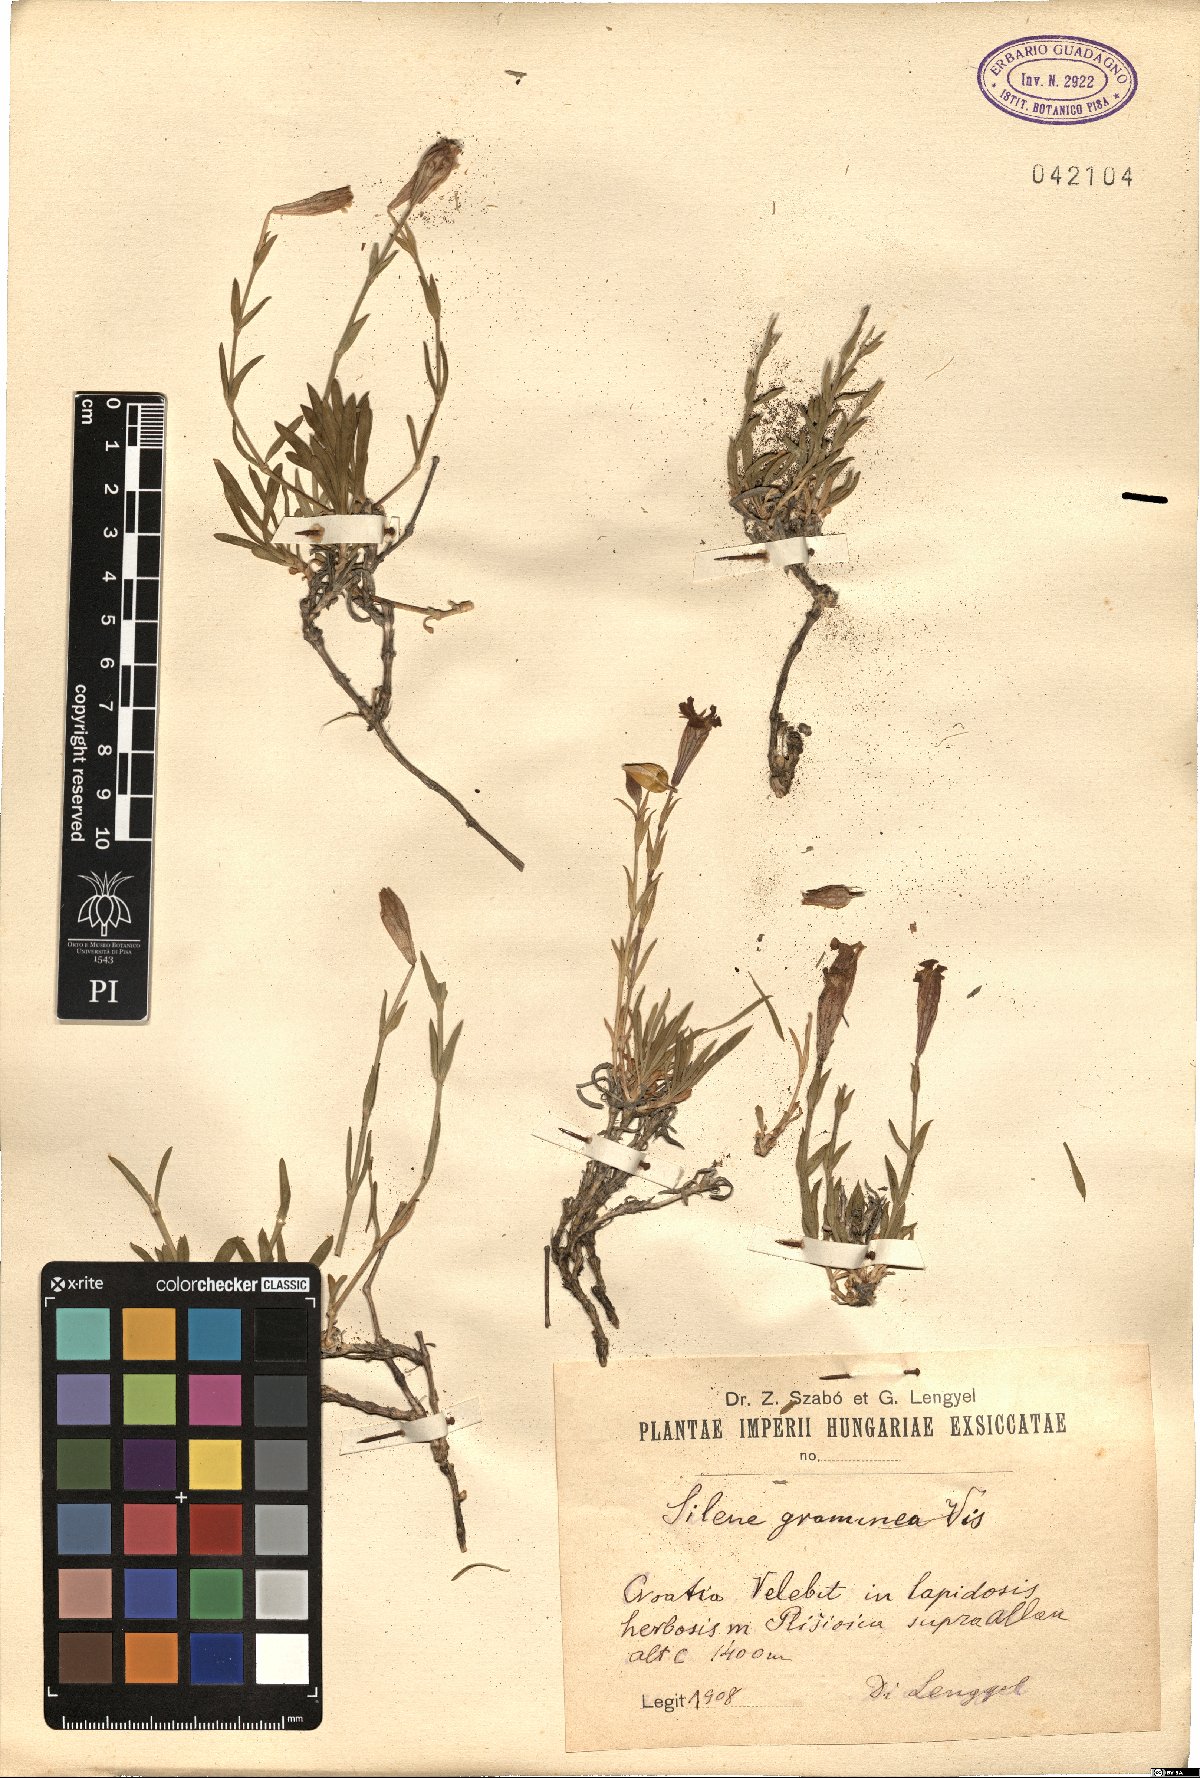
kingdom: Plantae
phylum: Tracheophyta
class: Magnoliopsida
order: Caryophyllales
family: Caryophyllaceae
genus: Silene
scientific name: Silene vallesia
